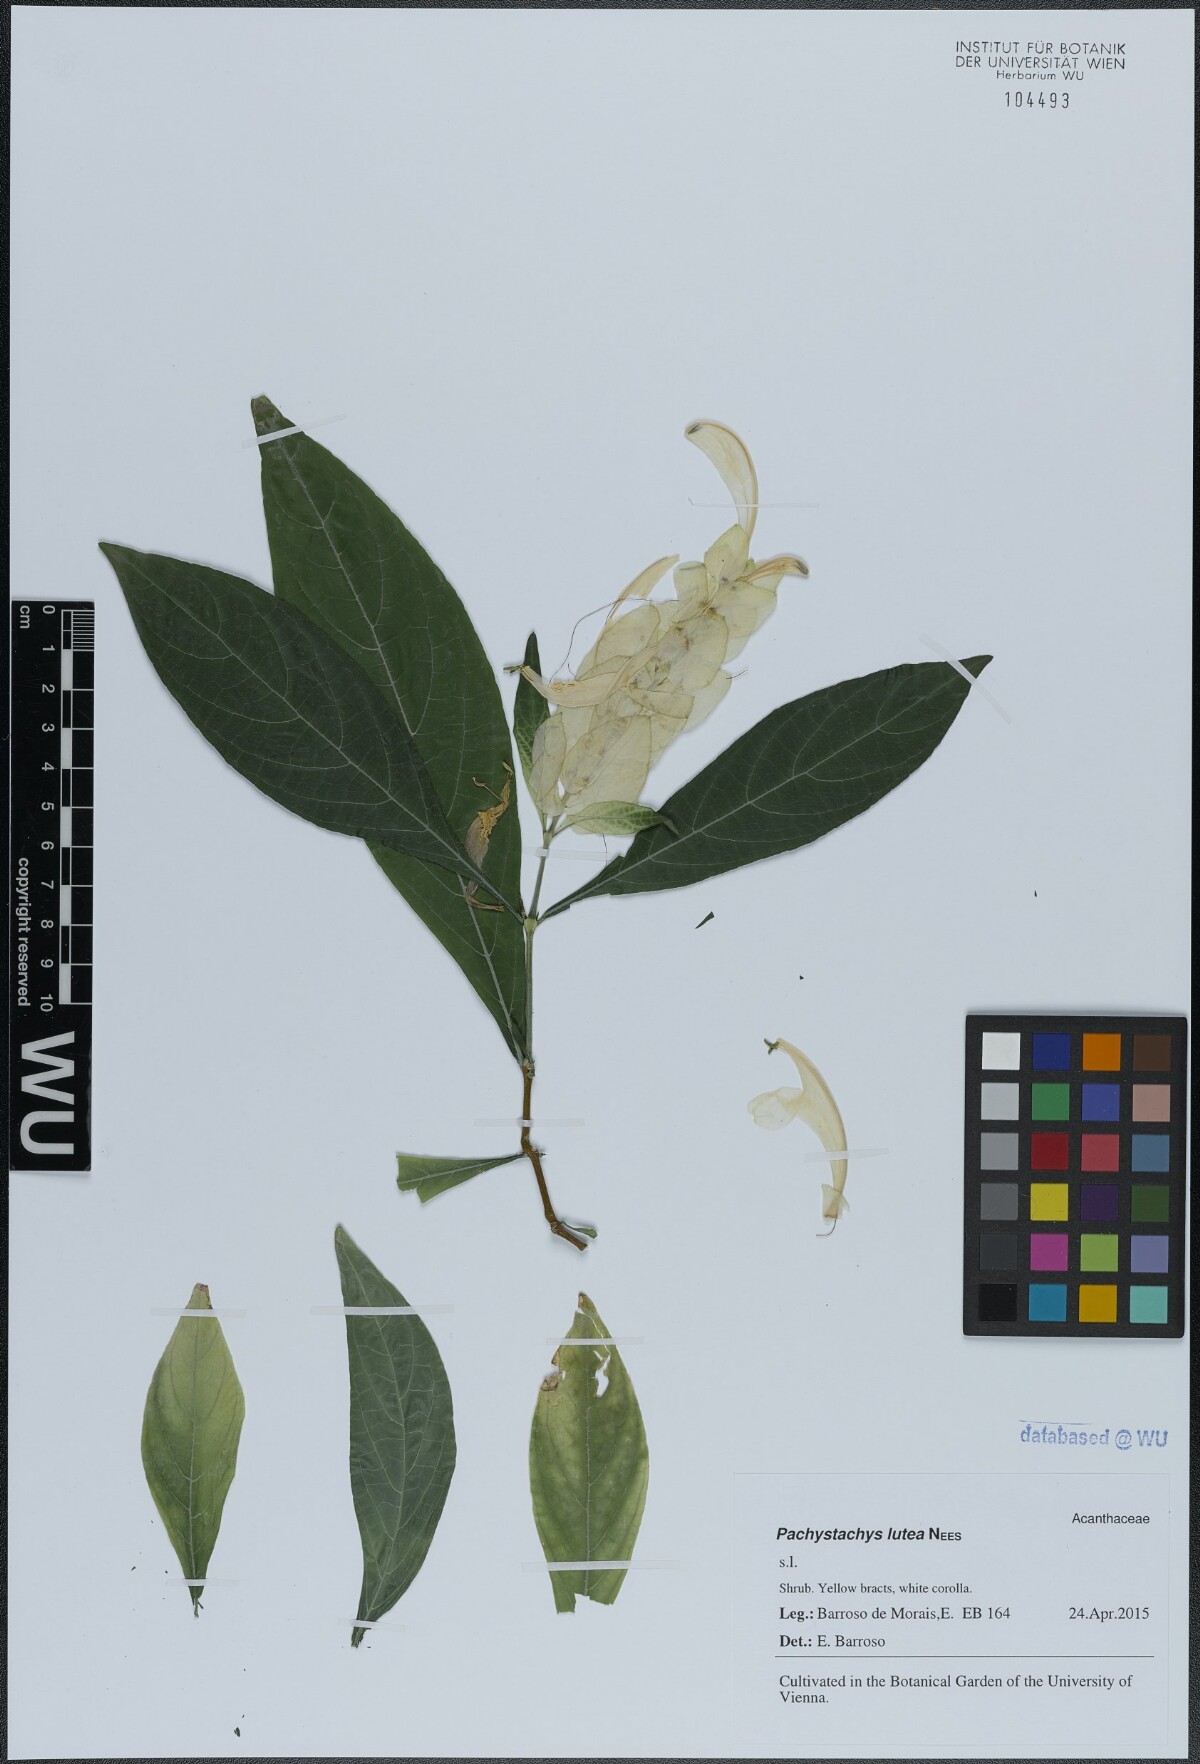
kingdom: Plantae
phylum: Tracheophyta
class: Magnoliopsida
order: Lamiales
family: Acanthaceae
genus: Pachystachys
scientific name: Pachystachys lutea
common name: Golden shrimp-plant
